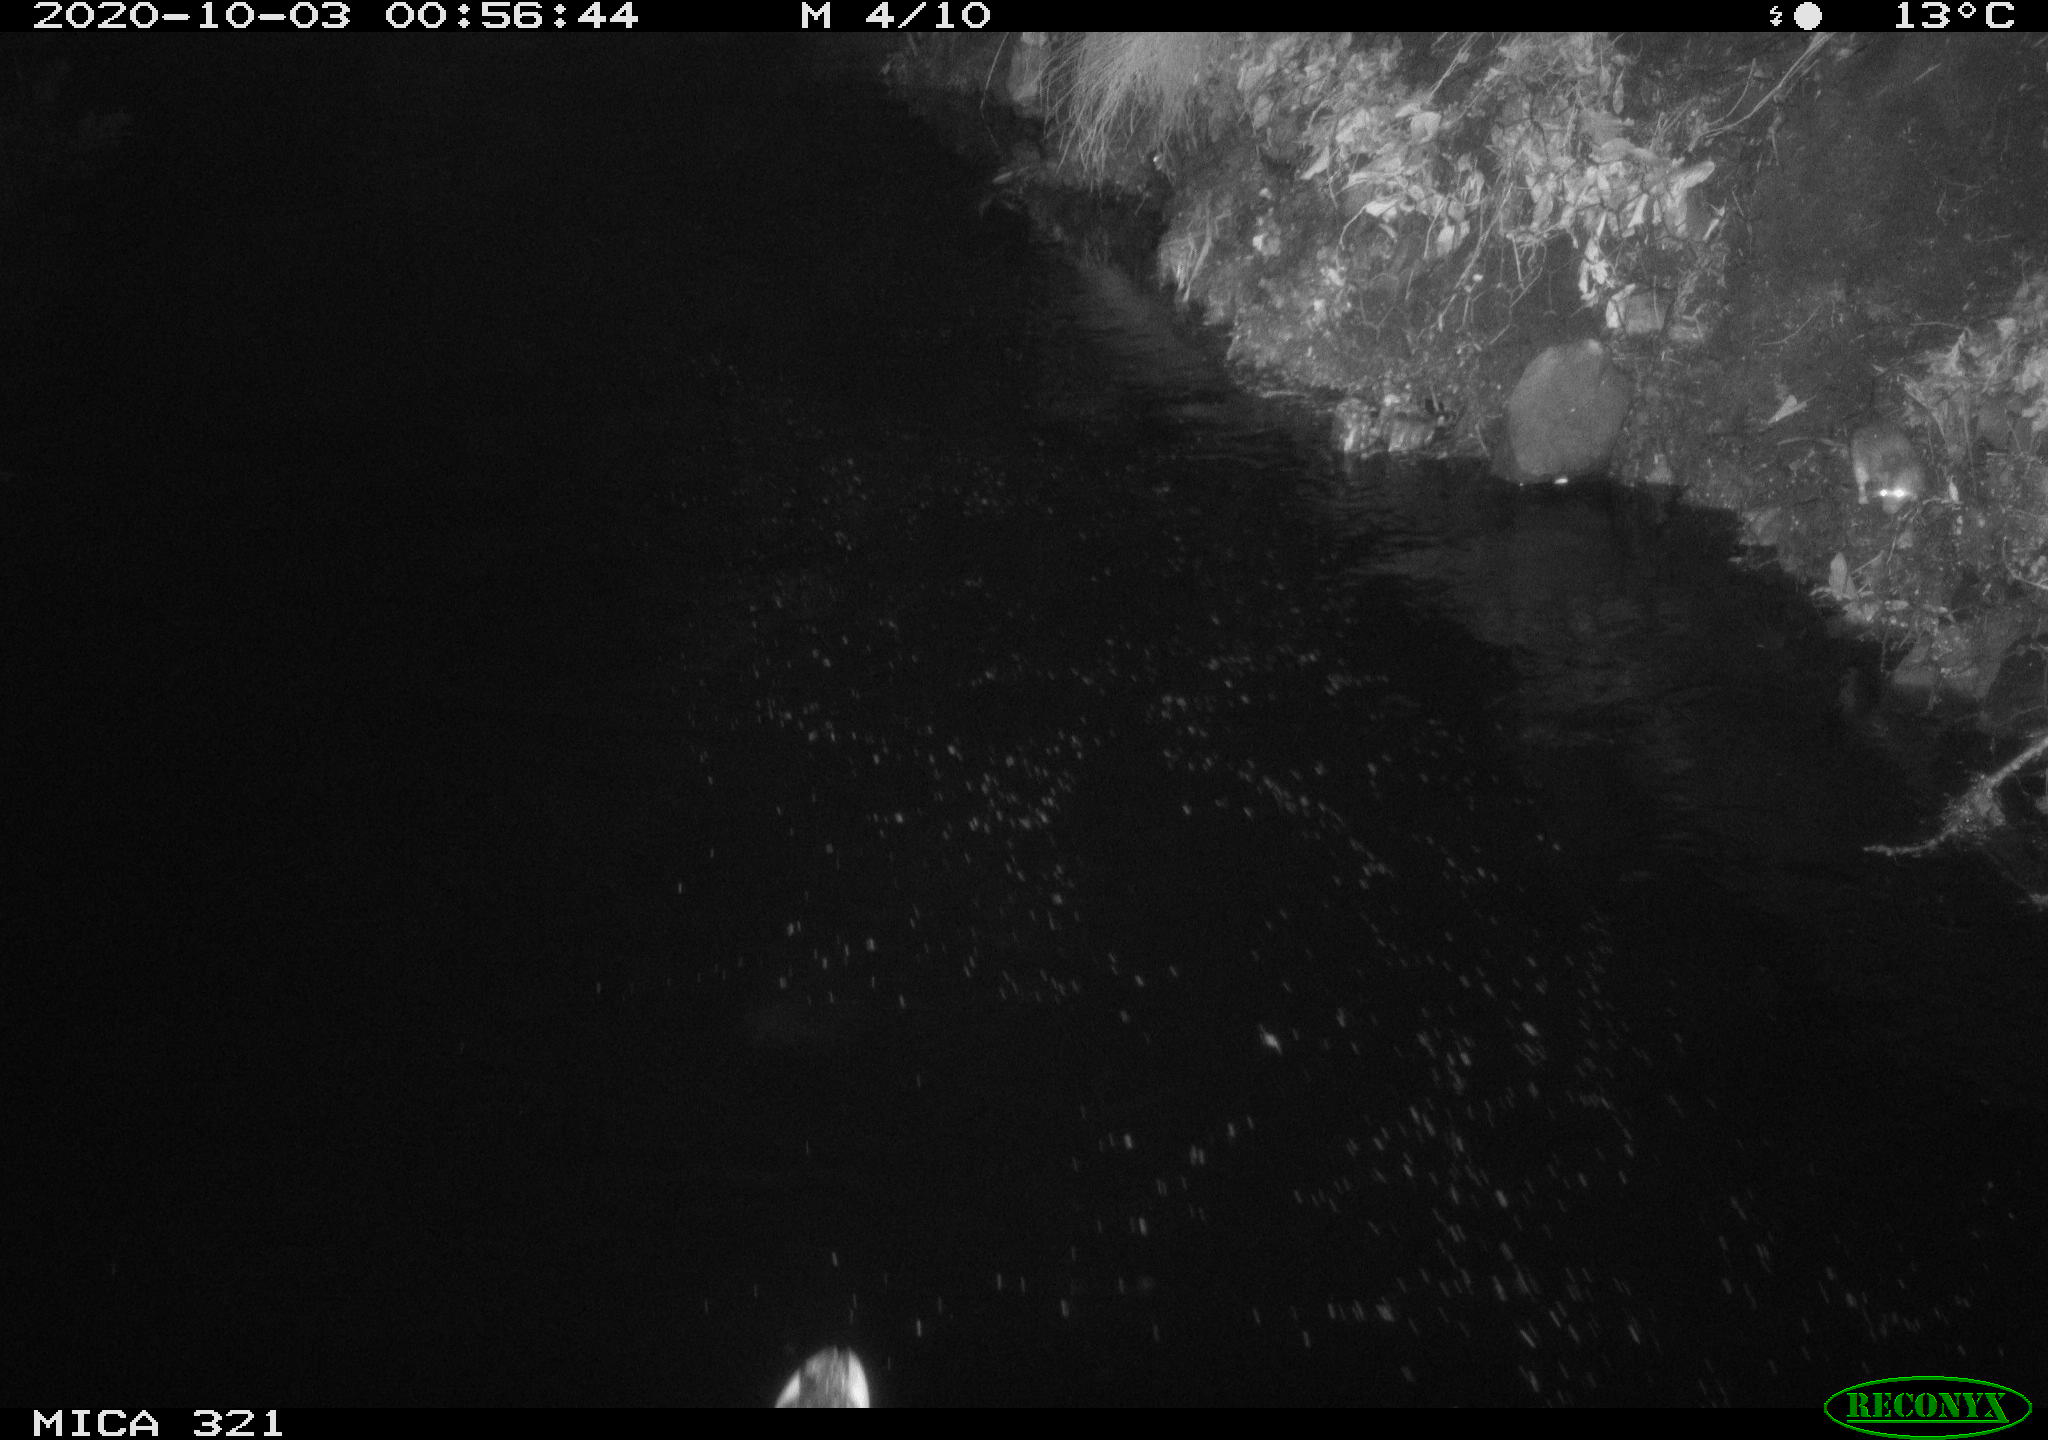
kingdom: Animalia
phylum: Chordata
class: Mammalia
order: Rodentia
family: Muridae
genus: Rattus
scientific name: Rattus norvegicus
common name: Brown rat
